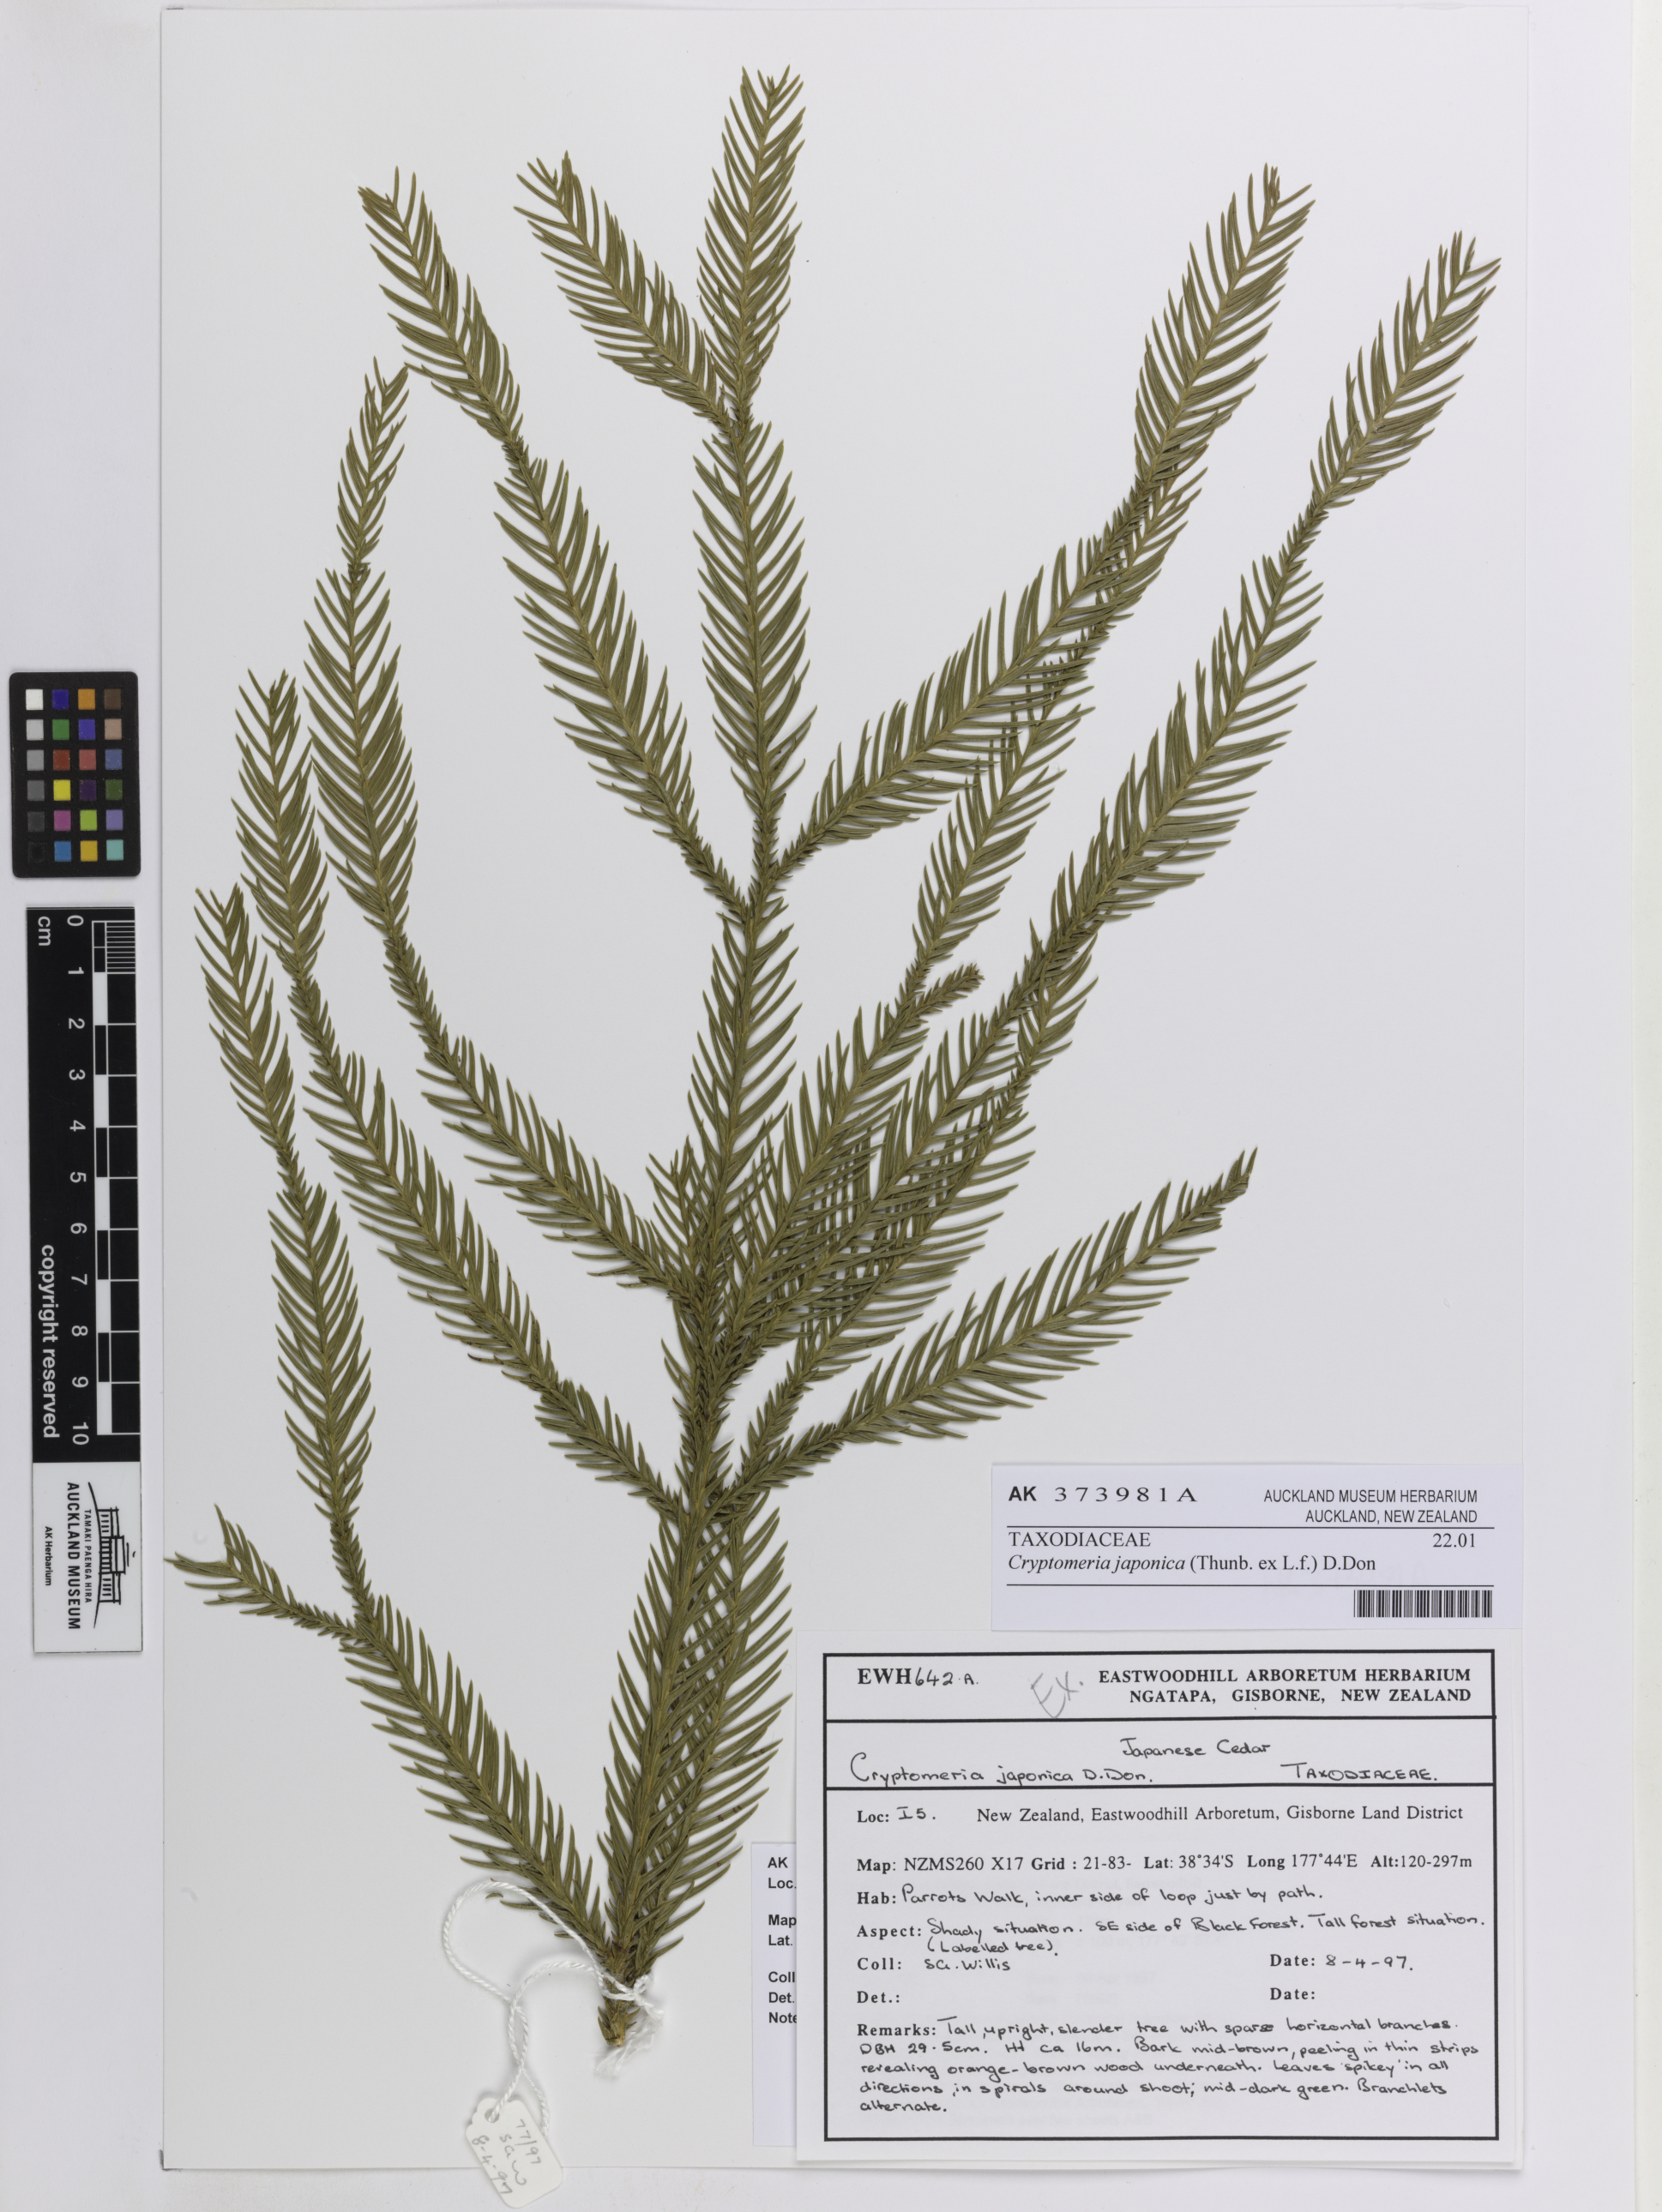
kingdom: Plantae
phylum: Tracheophyta
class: Pinopsida
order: Pinales
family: Cupressaceae
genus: Cryptomeria
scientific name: Cryptomeria japonica
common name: Japanese cedar
